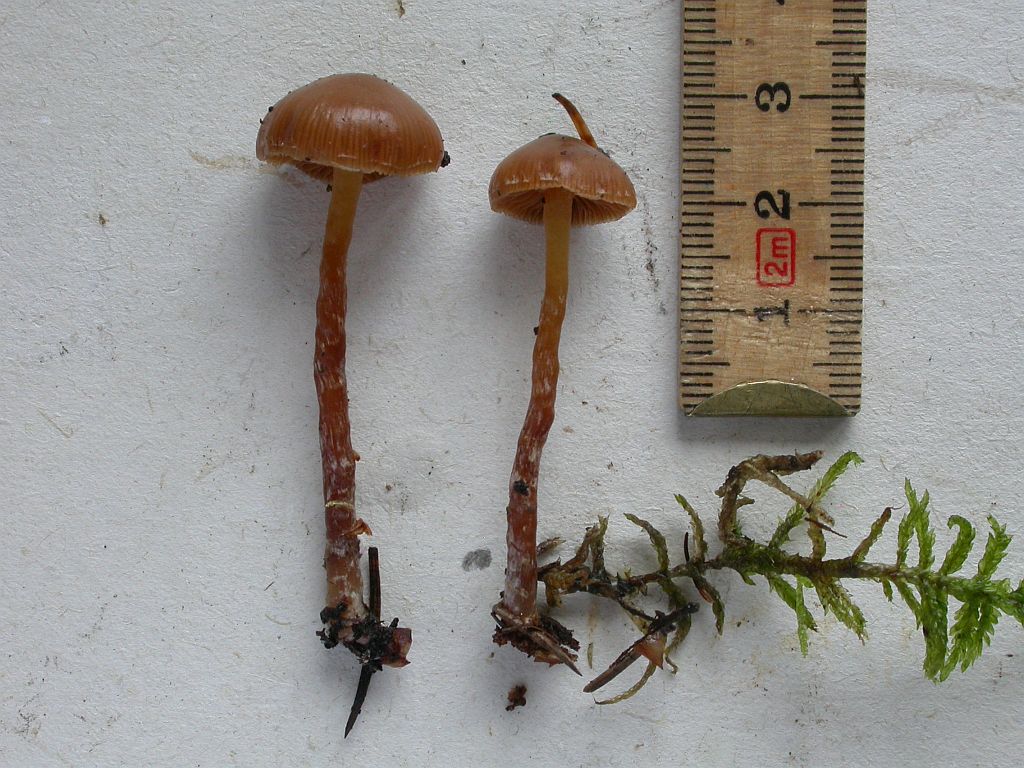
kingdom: Fungi
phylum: Basidiomycota
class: Agaricomycetes
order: Agaricales
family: Hymenogastraceae
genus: Galerina
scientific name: Galerina sideroides
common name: træflis-hjelmhat
